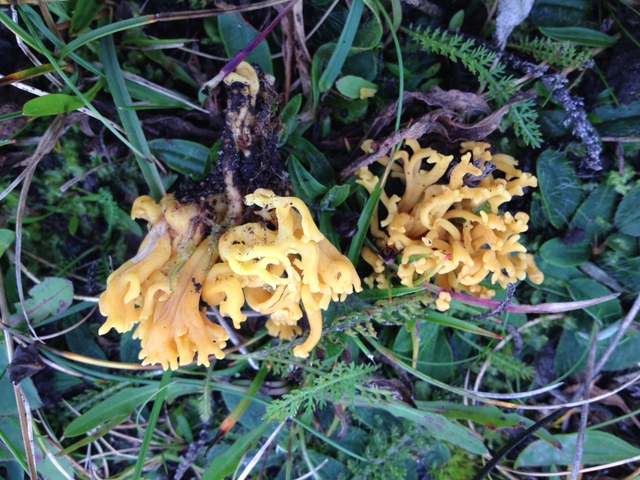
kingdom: Fungi
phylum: Basidiomycota
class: Agaricomycetes
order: Agaricales
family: Clavariaceae
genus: Clavulinopsis
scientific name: Clavulinopsis corniculata
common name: eng-køllesvamp
